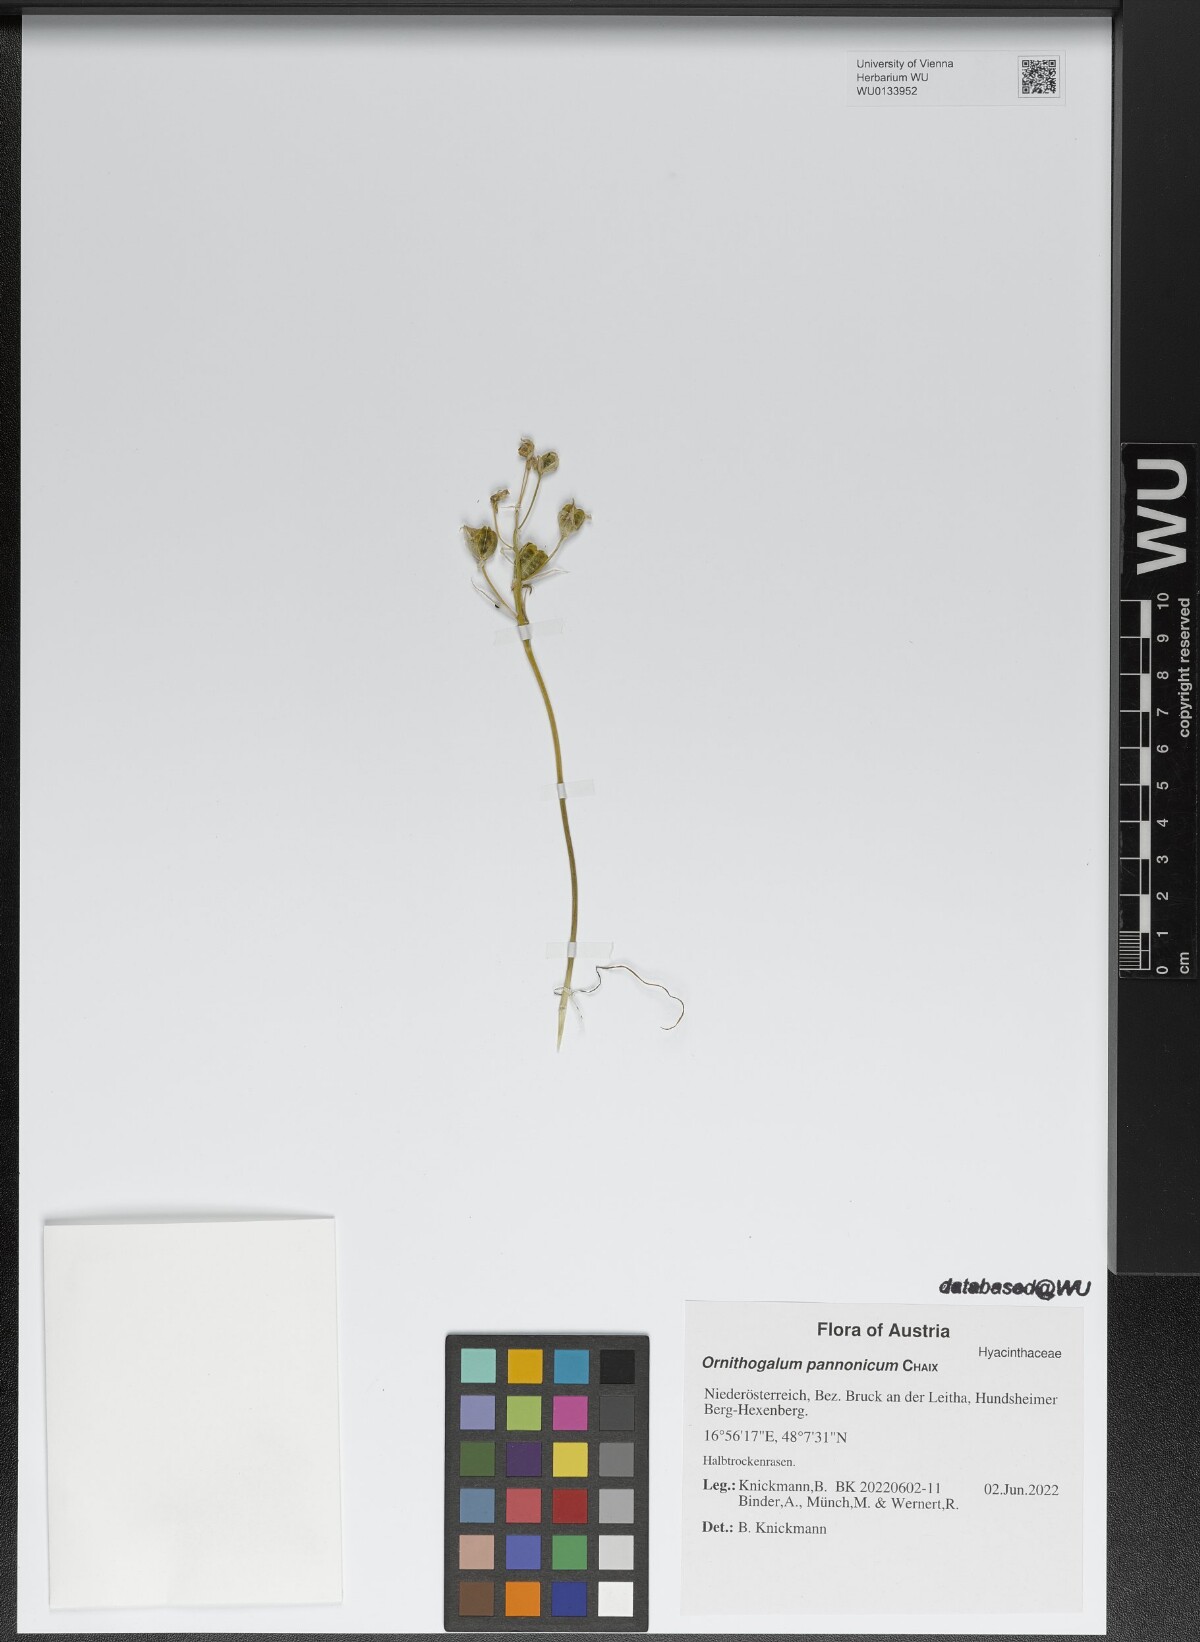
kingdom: Plantae
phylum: Tracheophyta
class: Liliopsida
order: Asparagales
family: Asparagaceae
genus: Ornithogalum
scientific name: Ornithogalum comosum
